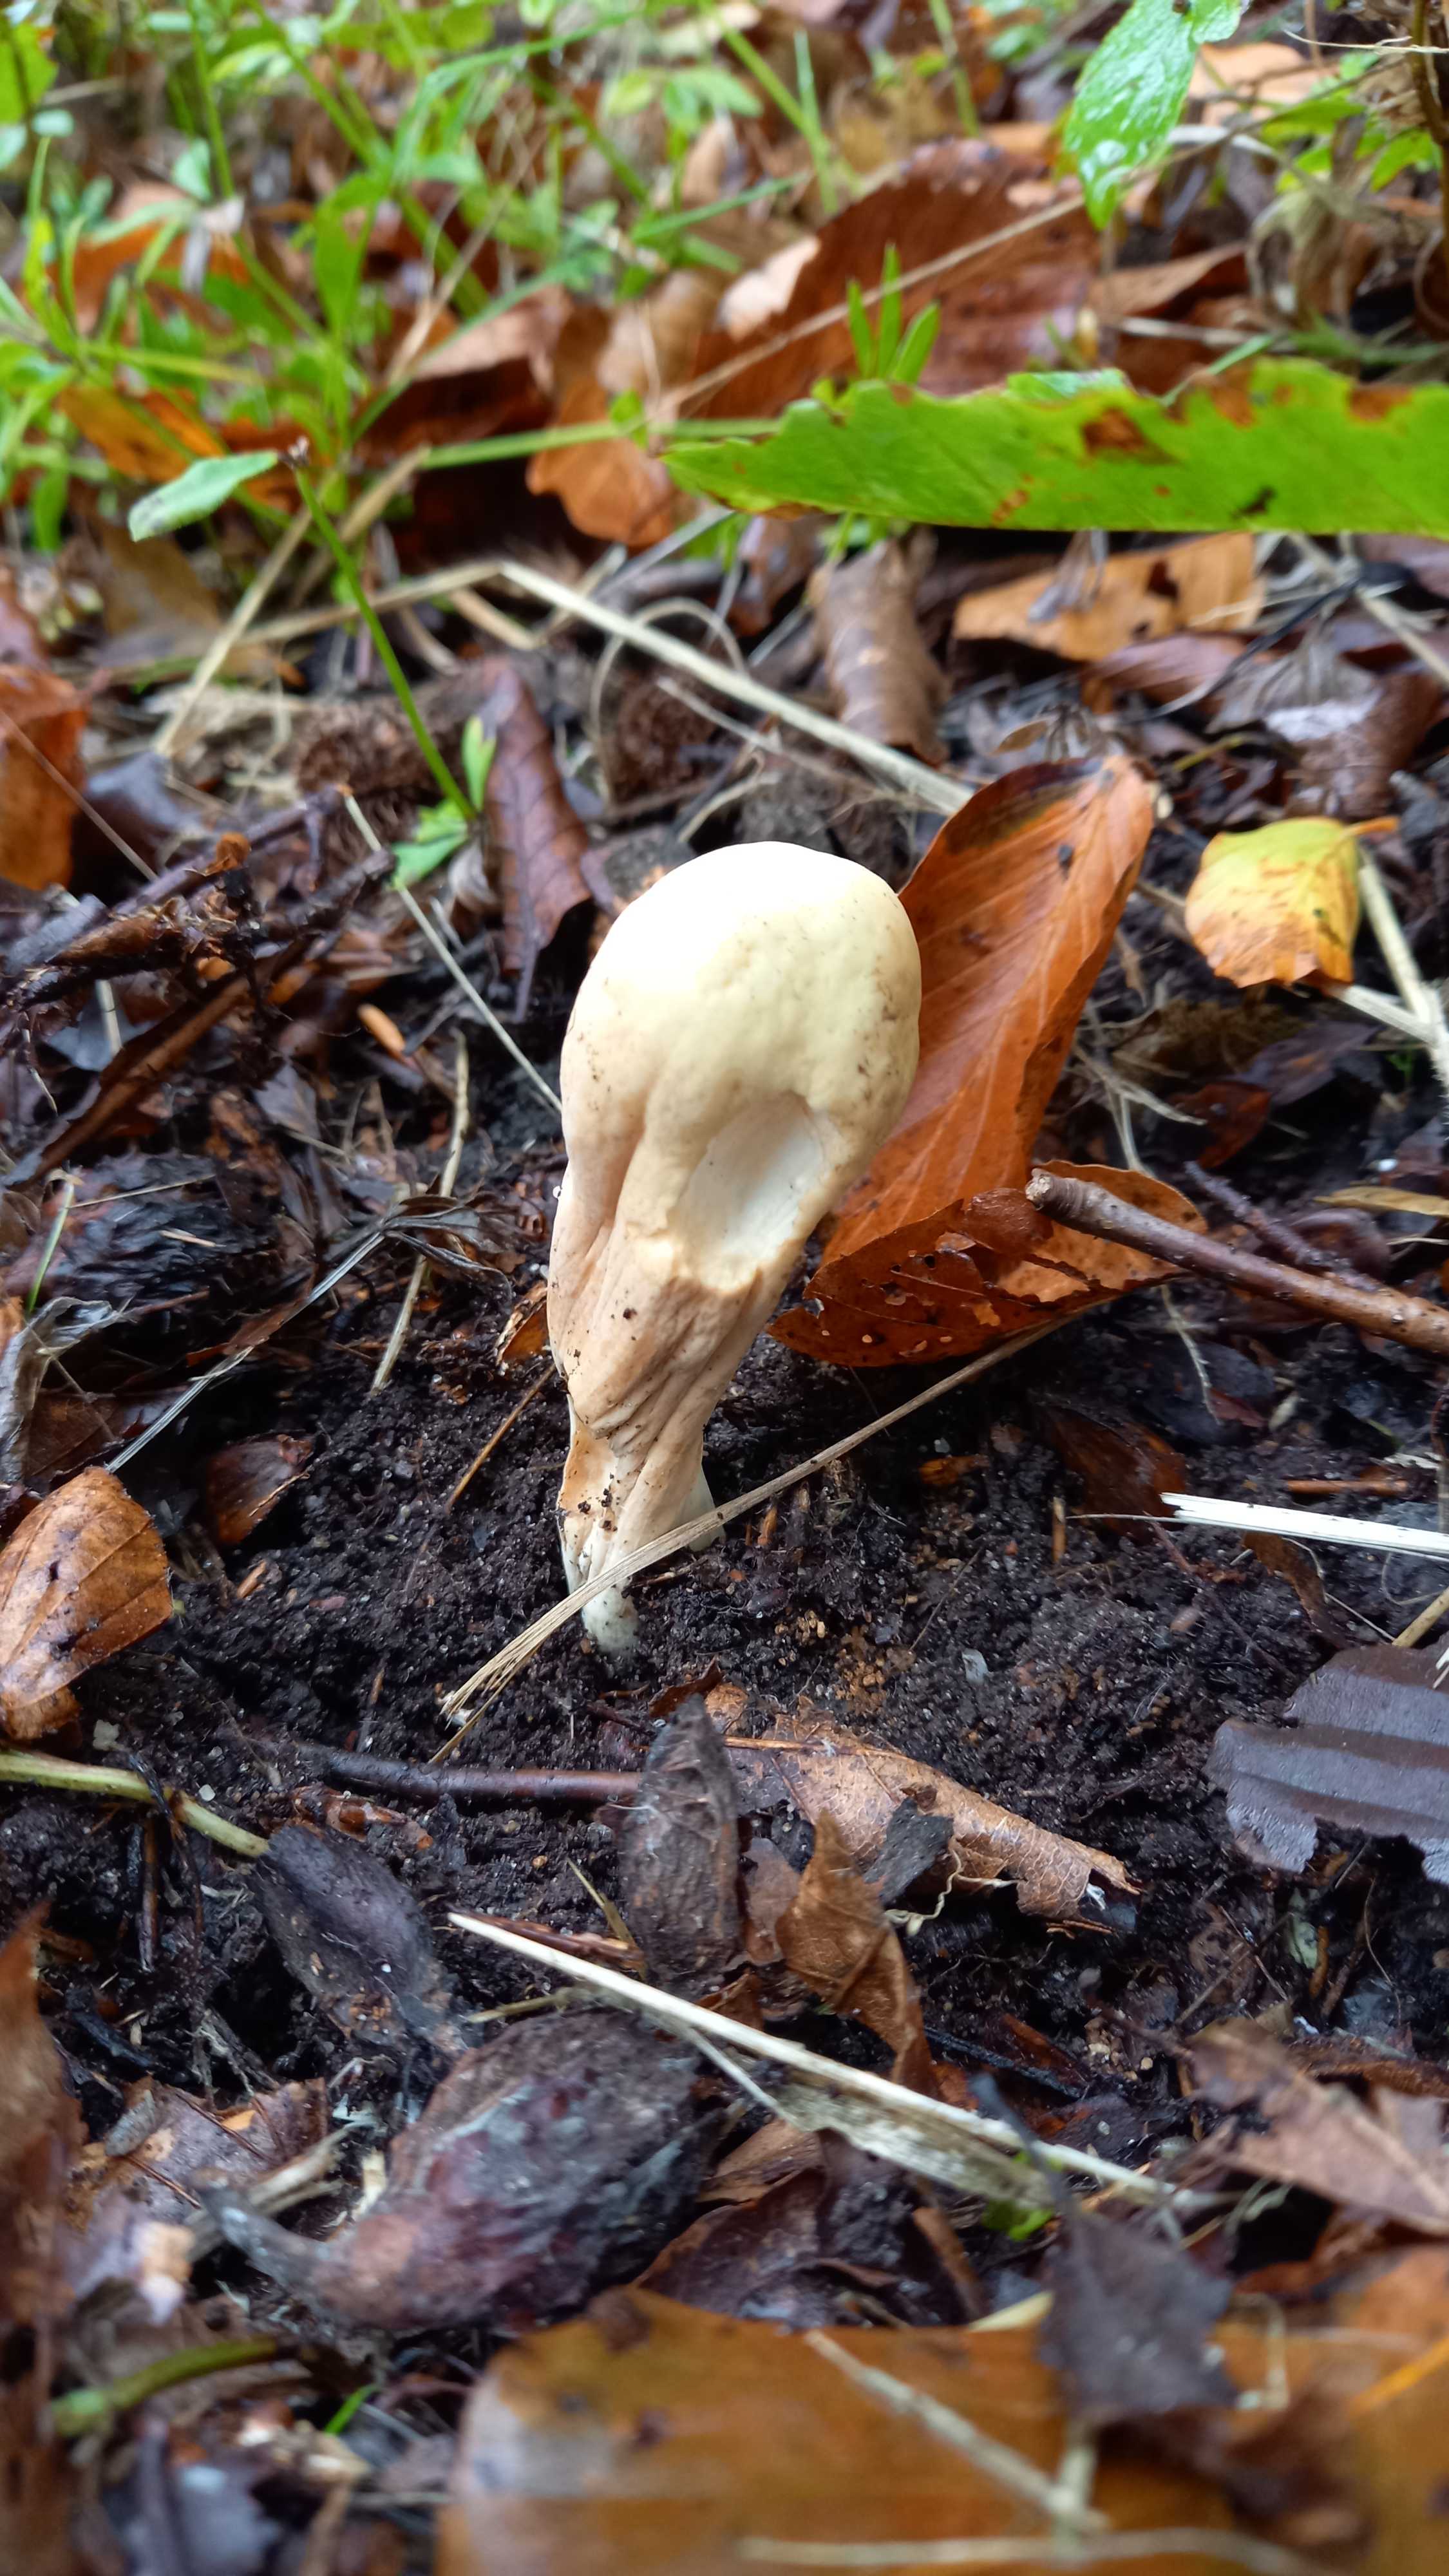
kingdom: Fungi
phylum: Basidiomycota
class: Agaricomycetes
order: Gomphales
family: Clavariadelphaceae
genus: Clavariadelphus
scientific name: Clavariadelphus pistillaris
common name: herkules-kæmpekølle
